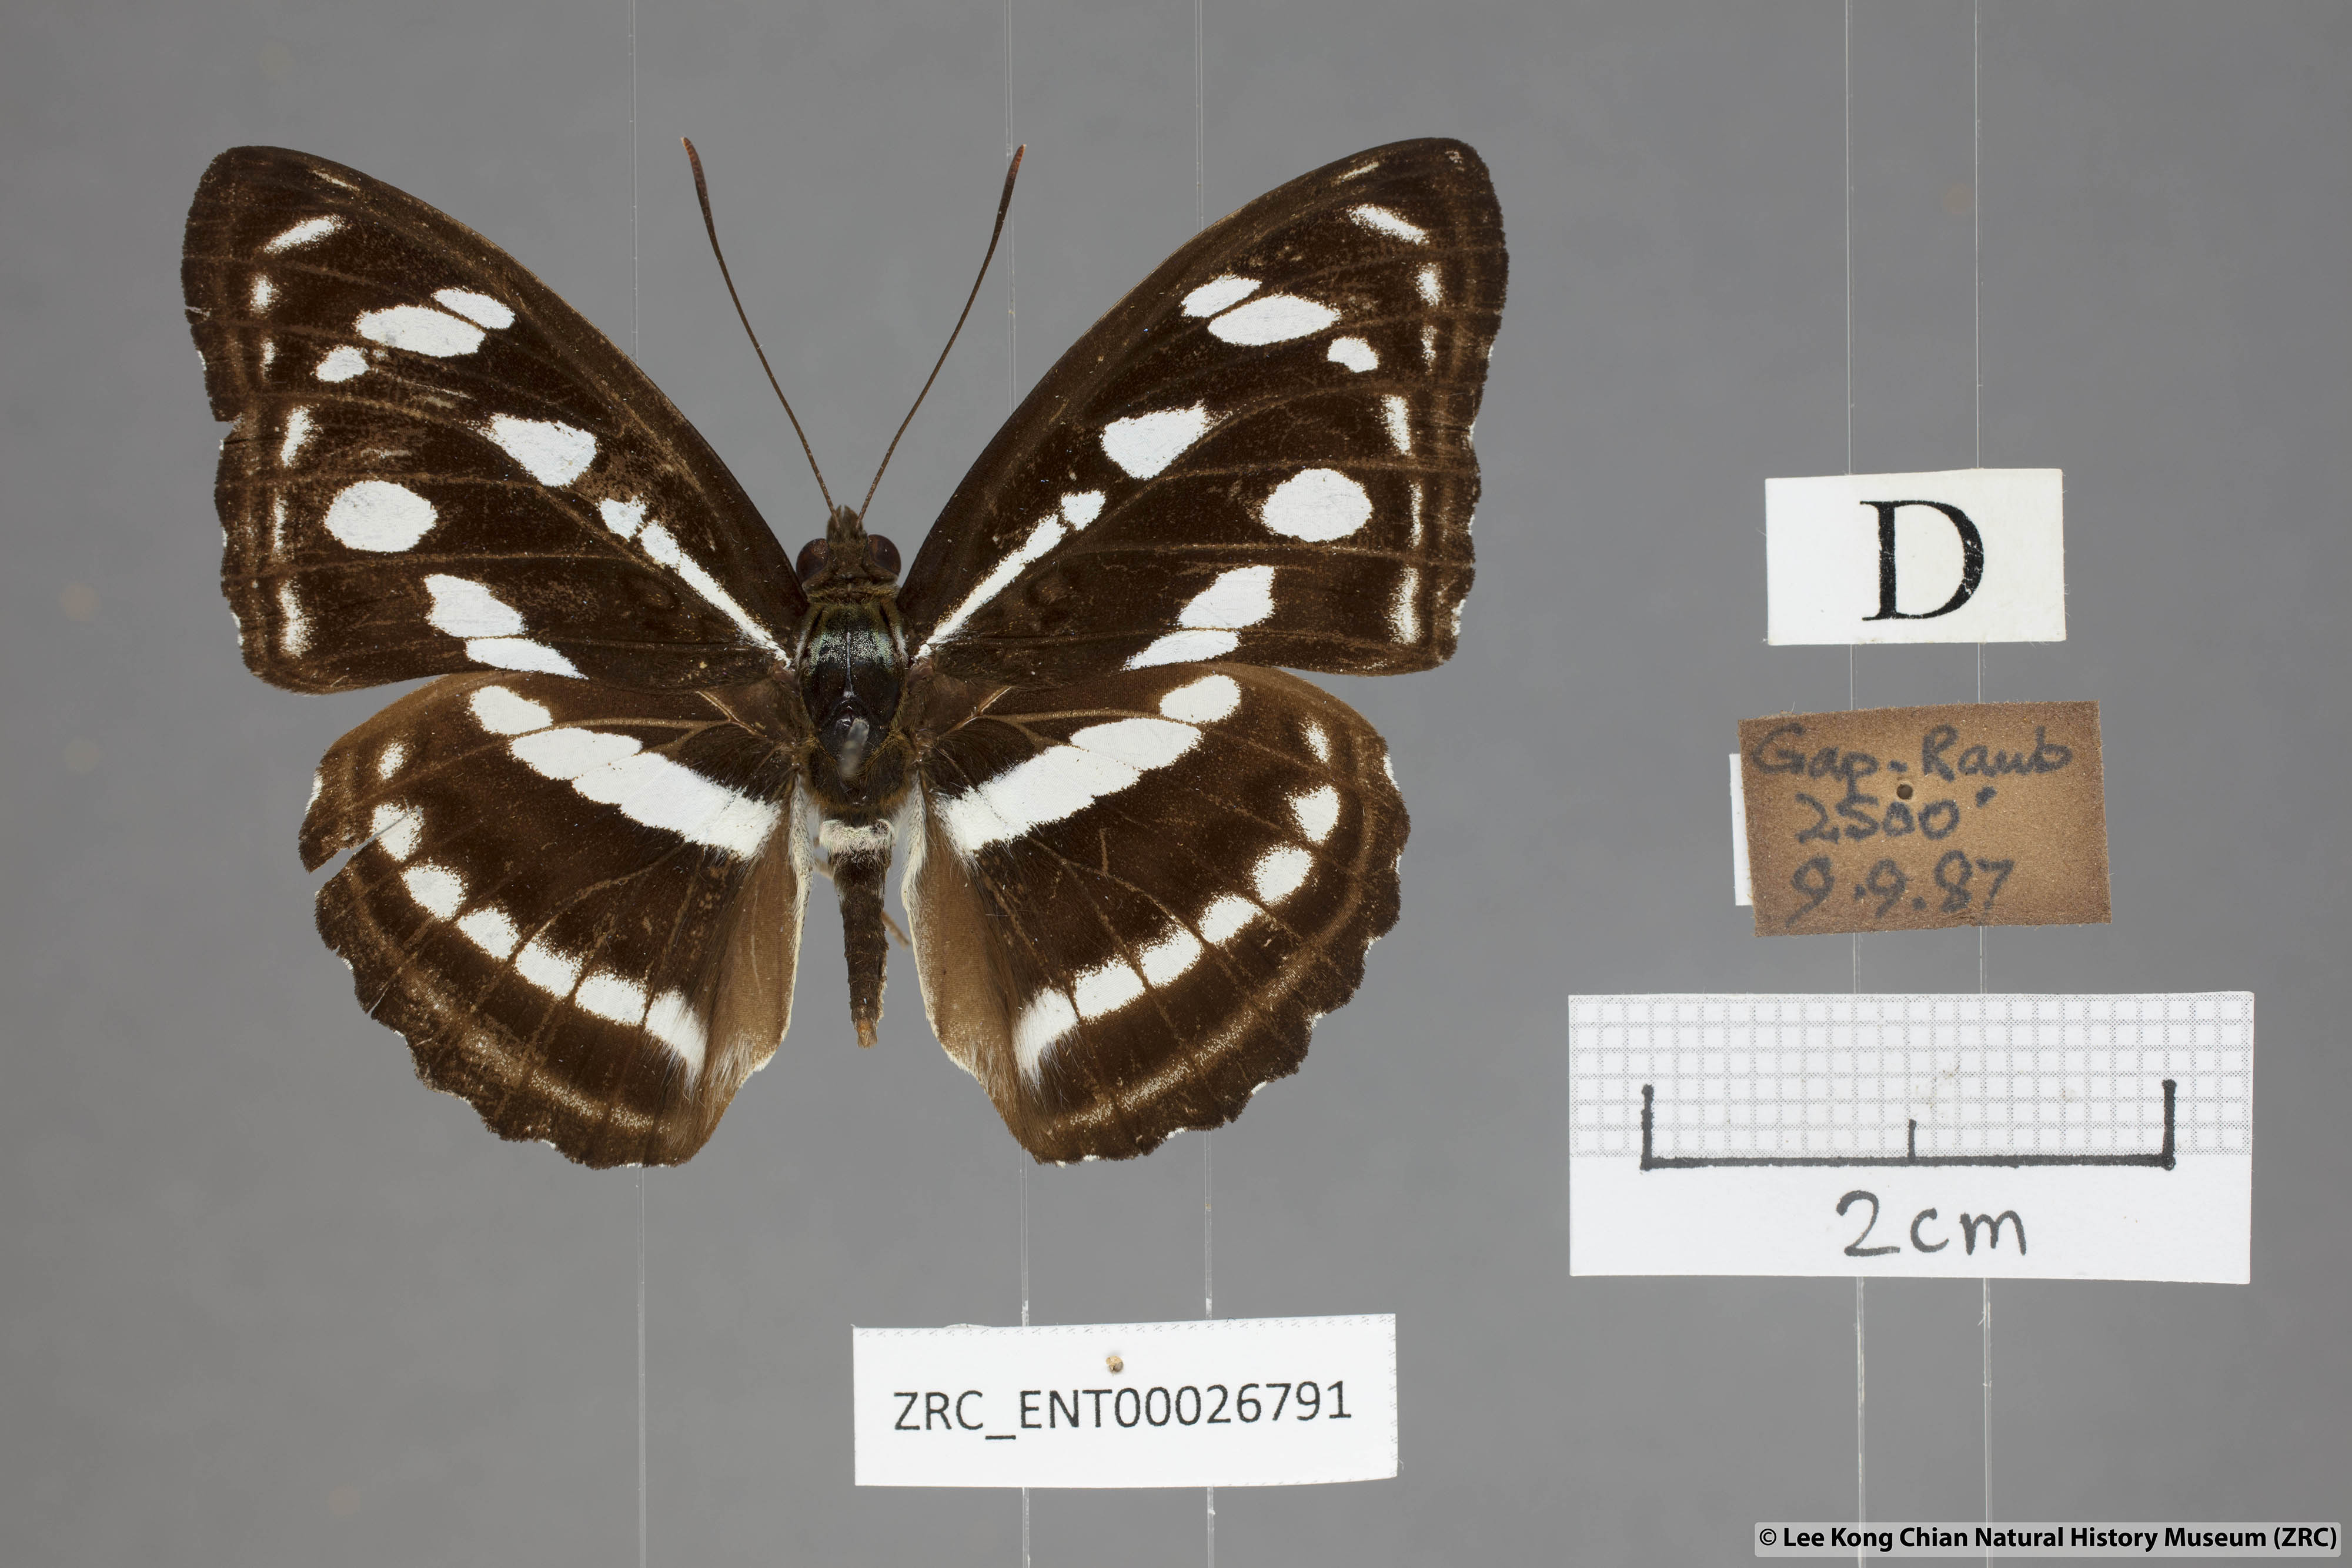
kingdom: Animalia
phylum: Arthropoda
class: Insecta
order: Lepidoptera
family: Nymphalidae
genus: Parathyma
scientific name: Parathyma reta
